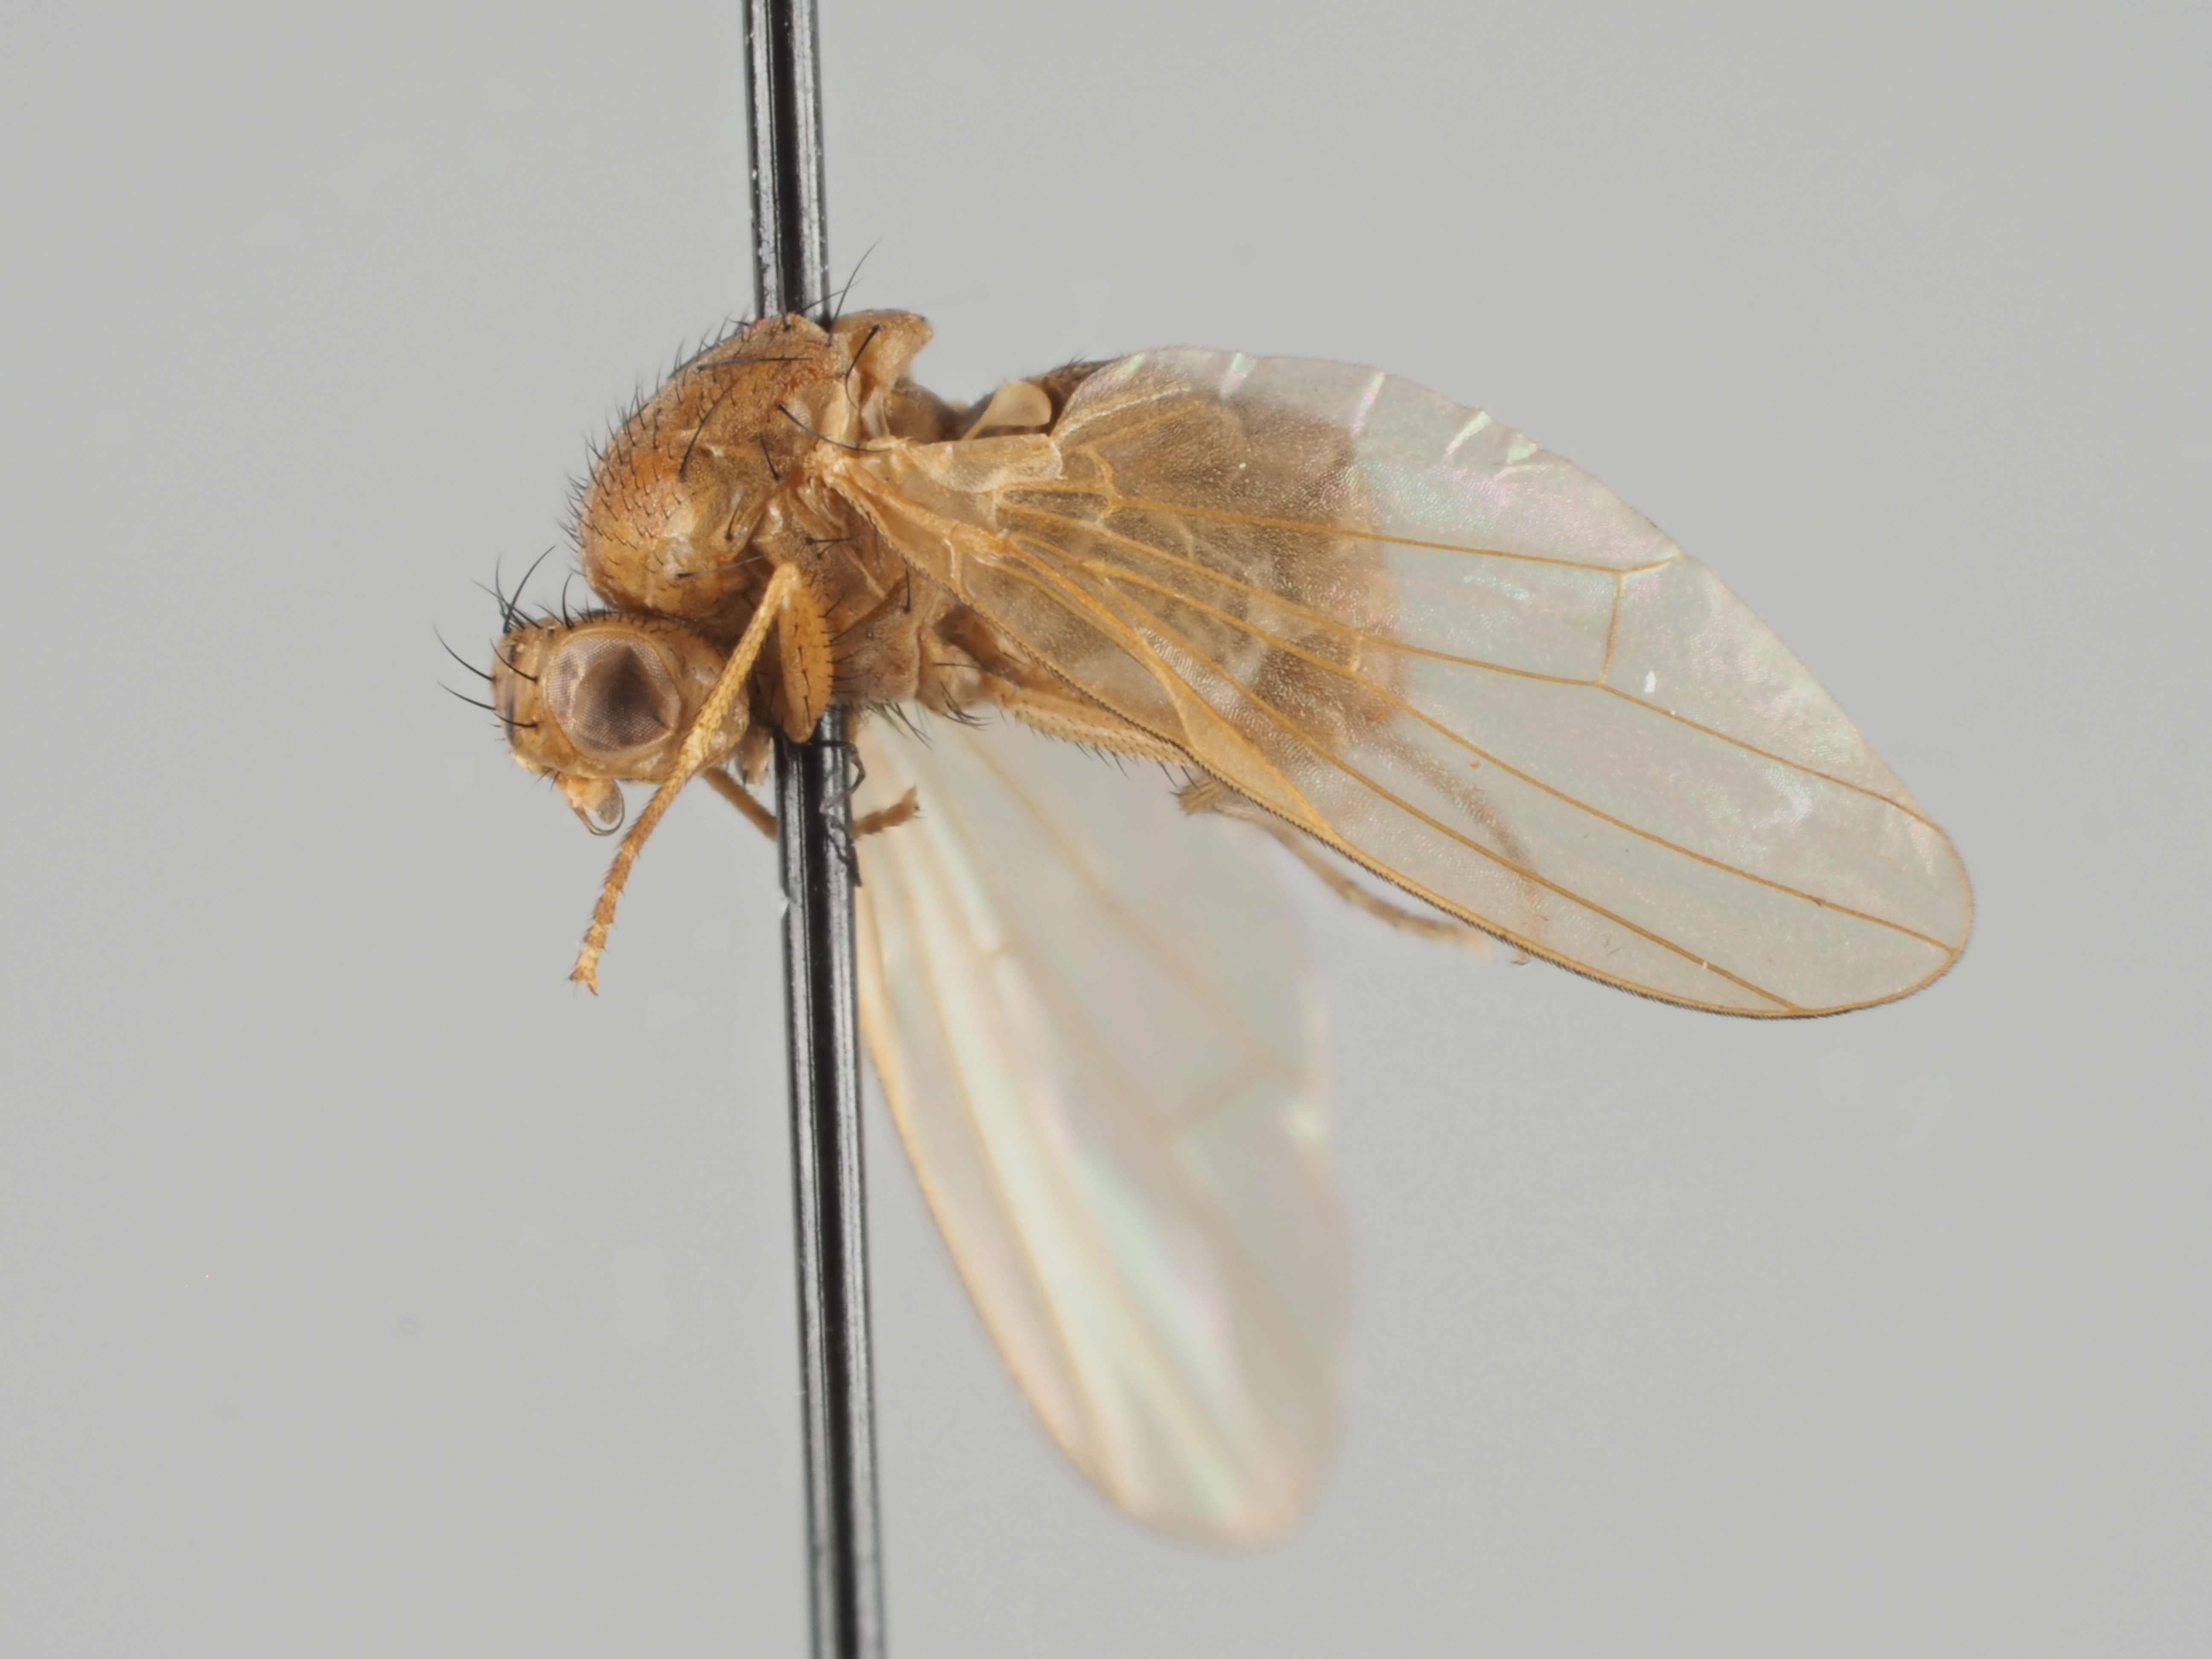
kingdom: Animalia
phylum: Arthropoda
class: Insecta
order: Diptera
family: Lauxaniidae
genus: Sapromyza
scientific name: Sapromyza simplicior
